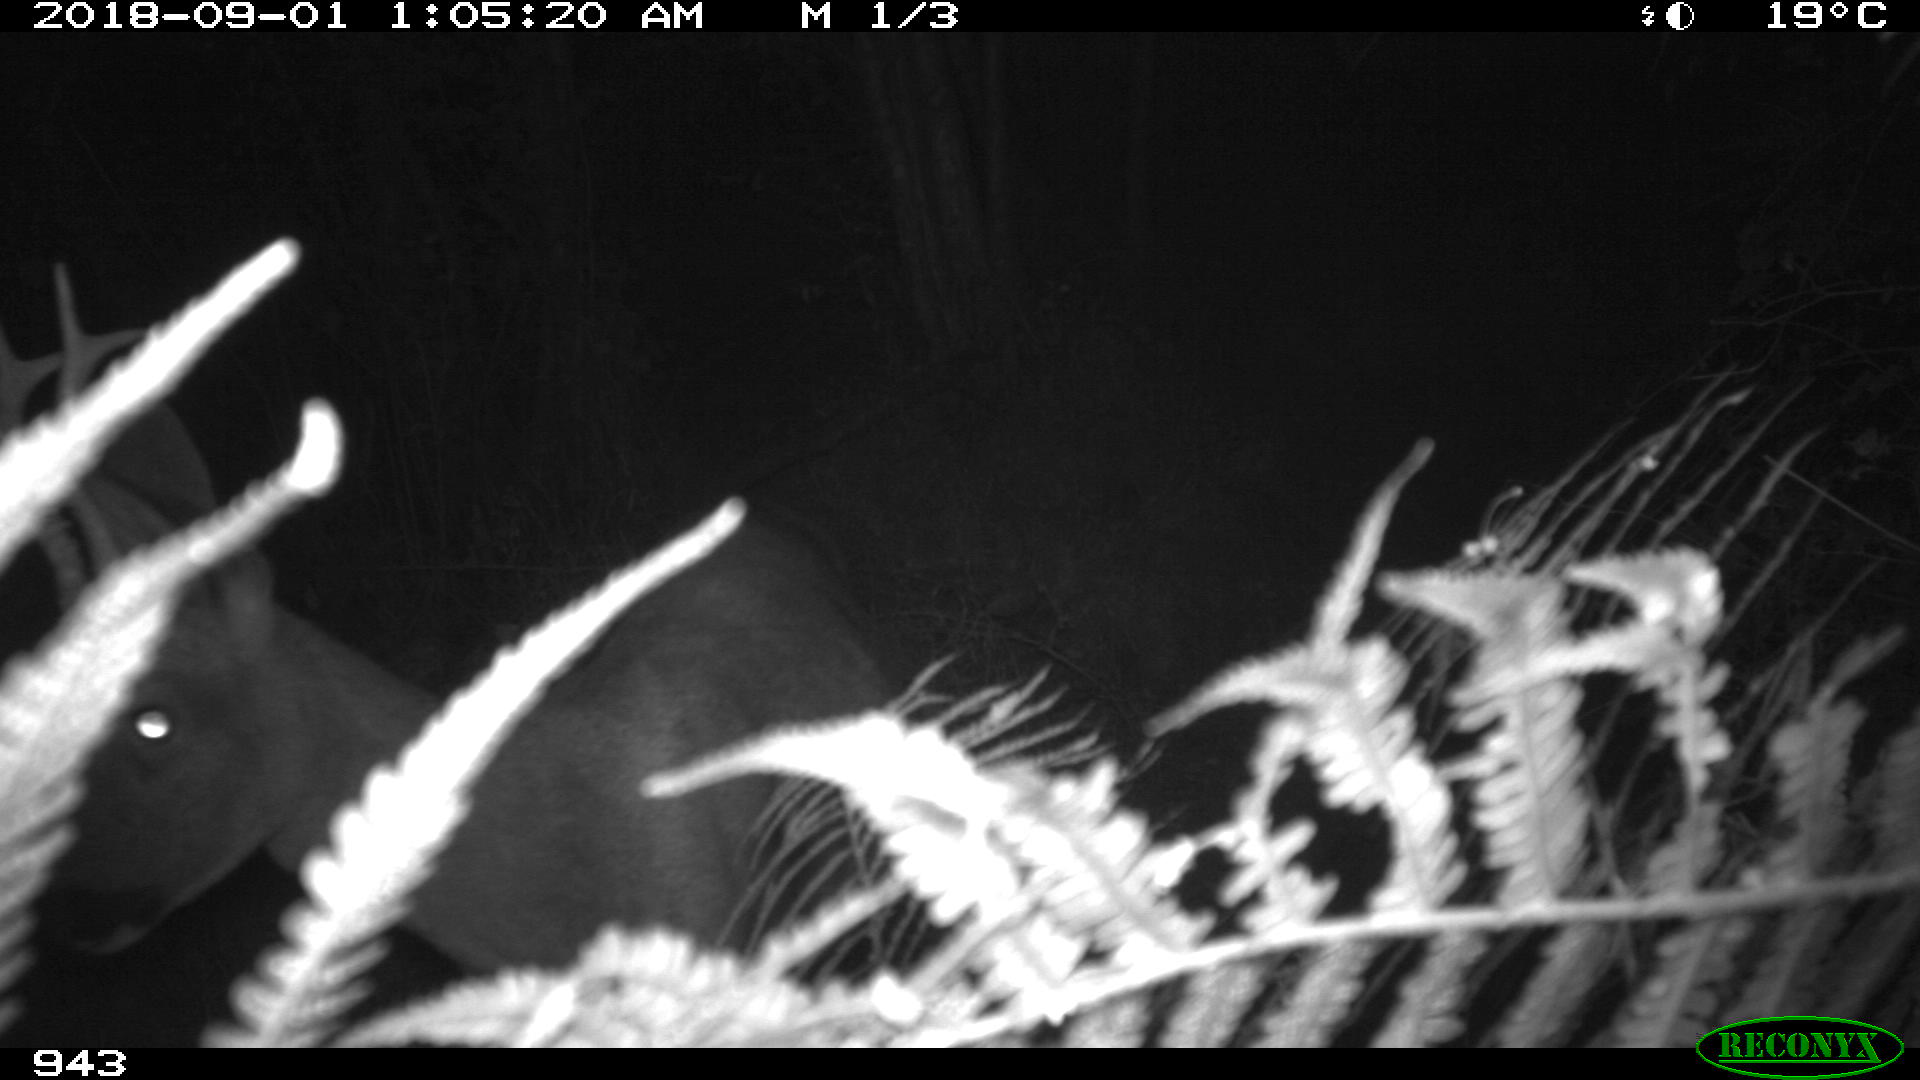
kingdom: Animalia
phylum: Chordata
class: Mammalia
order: Artiodactyla
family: Cervidae
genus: Capreolus
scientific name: Capreolus capreolus
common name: Western roe deer
